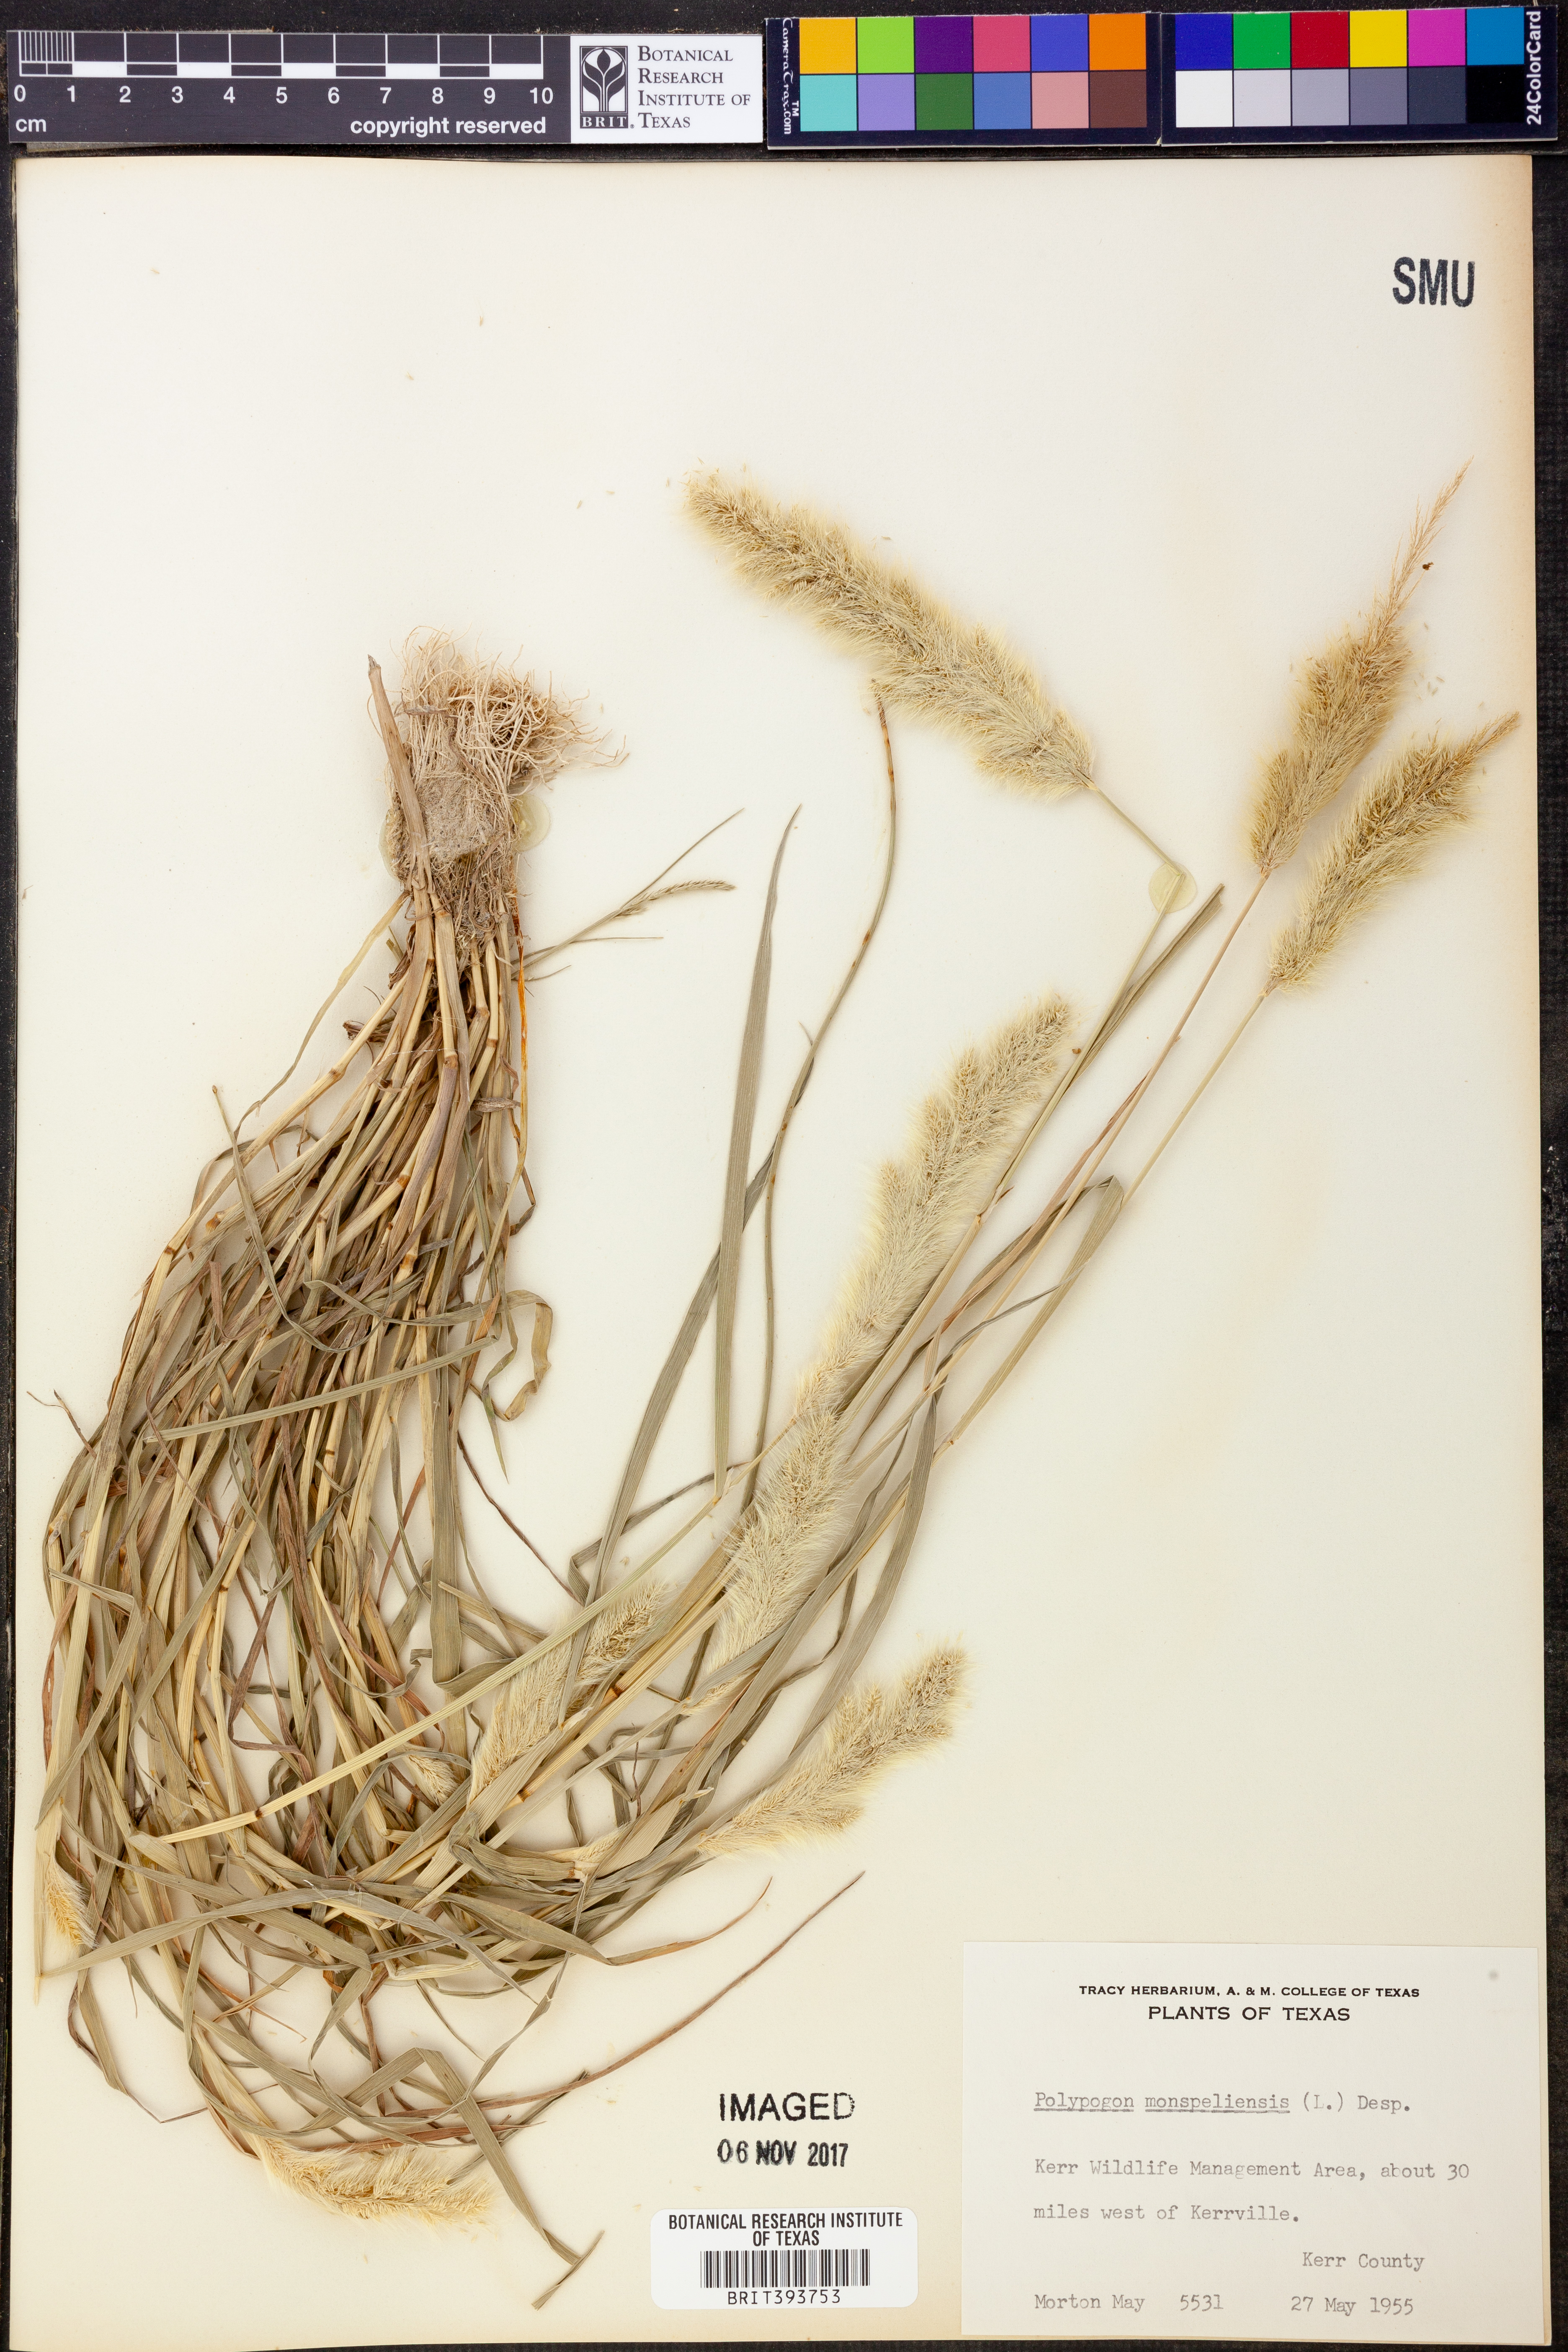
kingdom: Plantae
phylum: Tracheophyta
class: Liliopsida
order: Poales
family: Poaceae
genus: Polypogon
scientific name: Polypogon monspeliensis
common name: Annual rabbitsfoot grass
